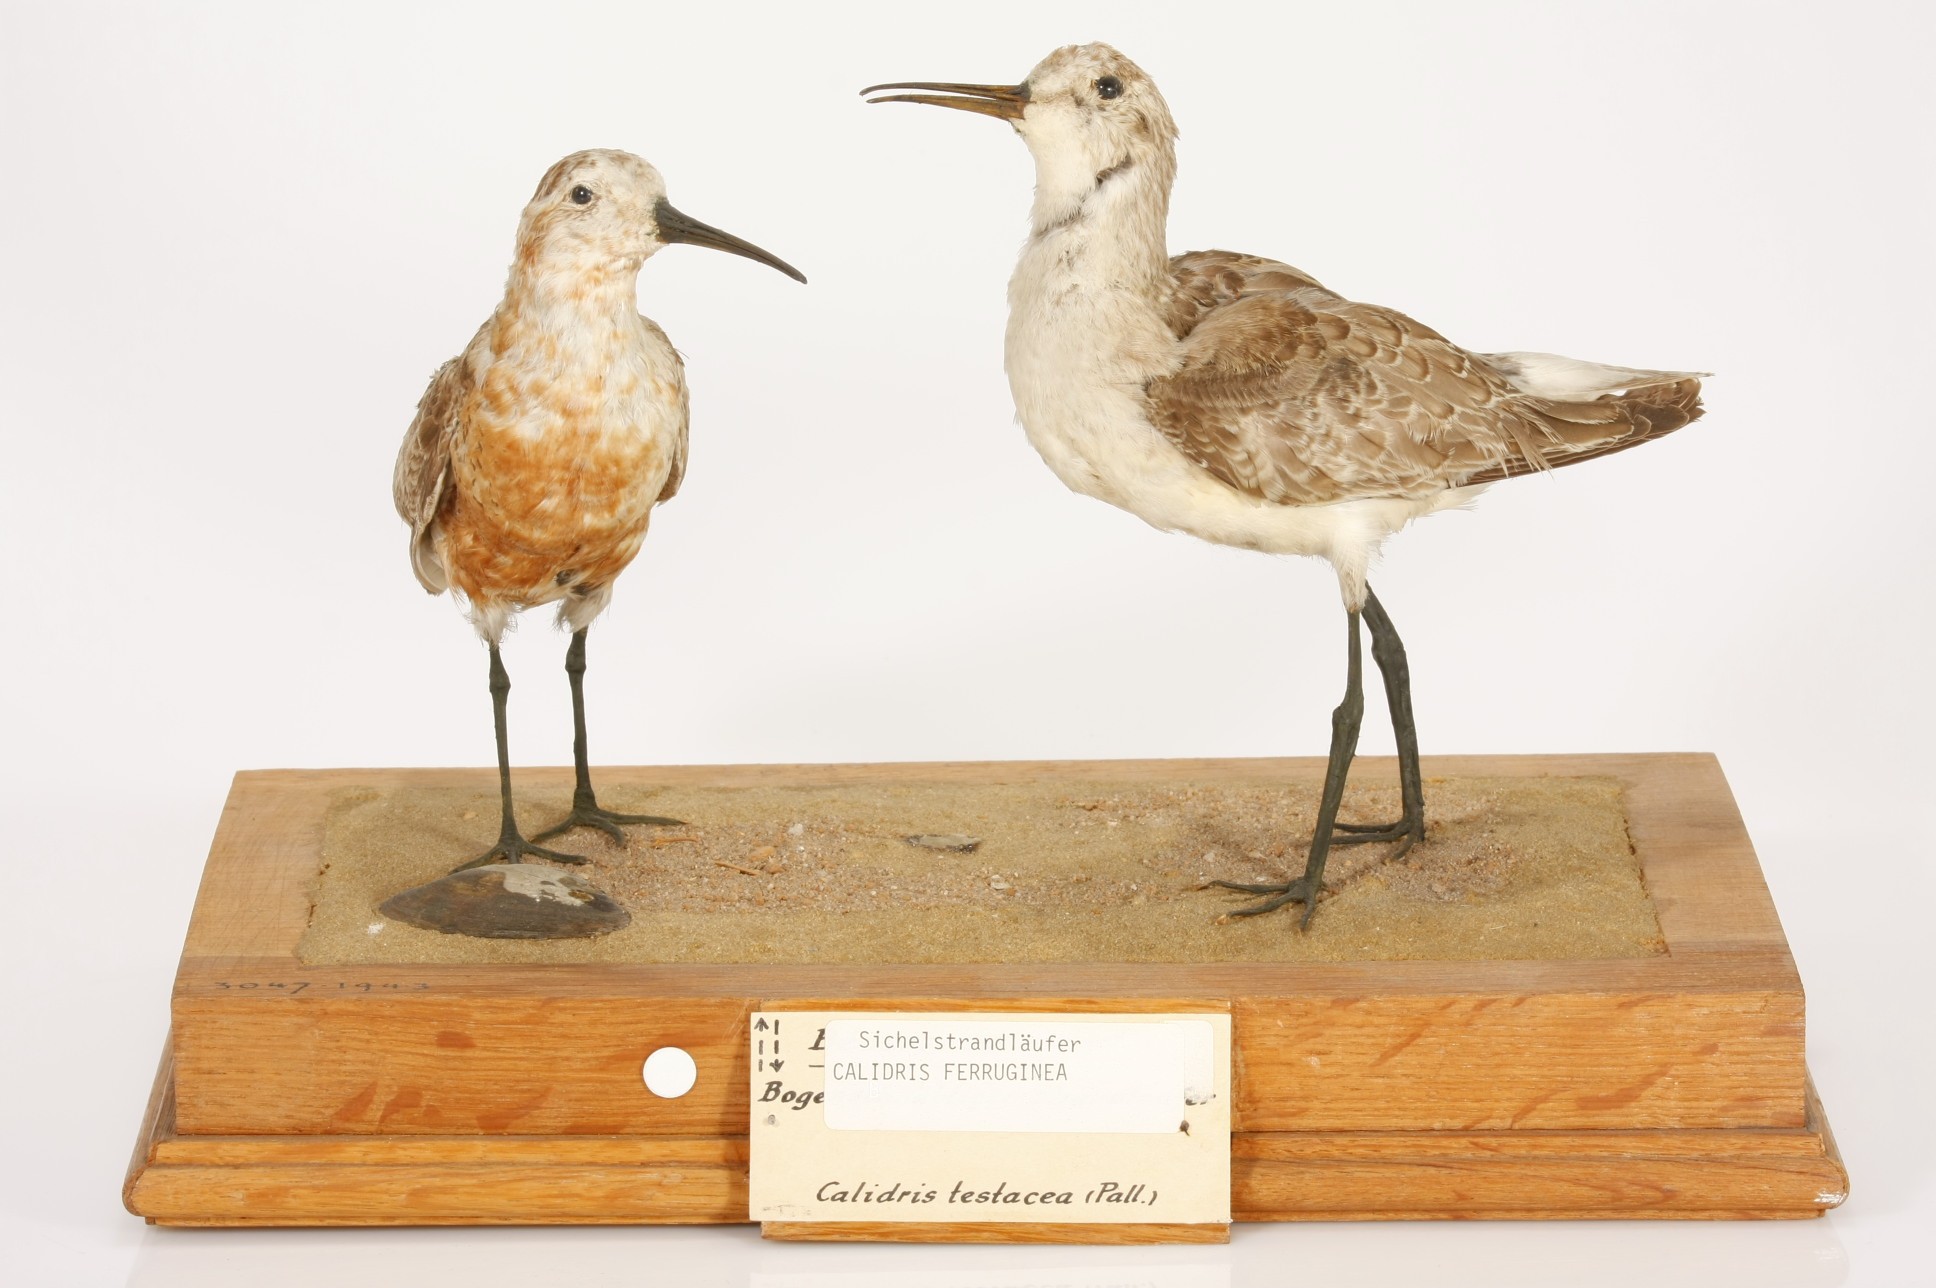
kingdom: Animalia
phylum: Chordata
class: Aves
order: Charadriiformes
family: Scolopacidae
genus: Calidris
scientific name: Calidris ferruginea
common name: Curlew sandpiper
